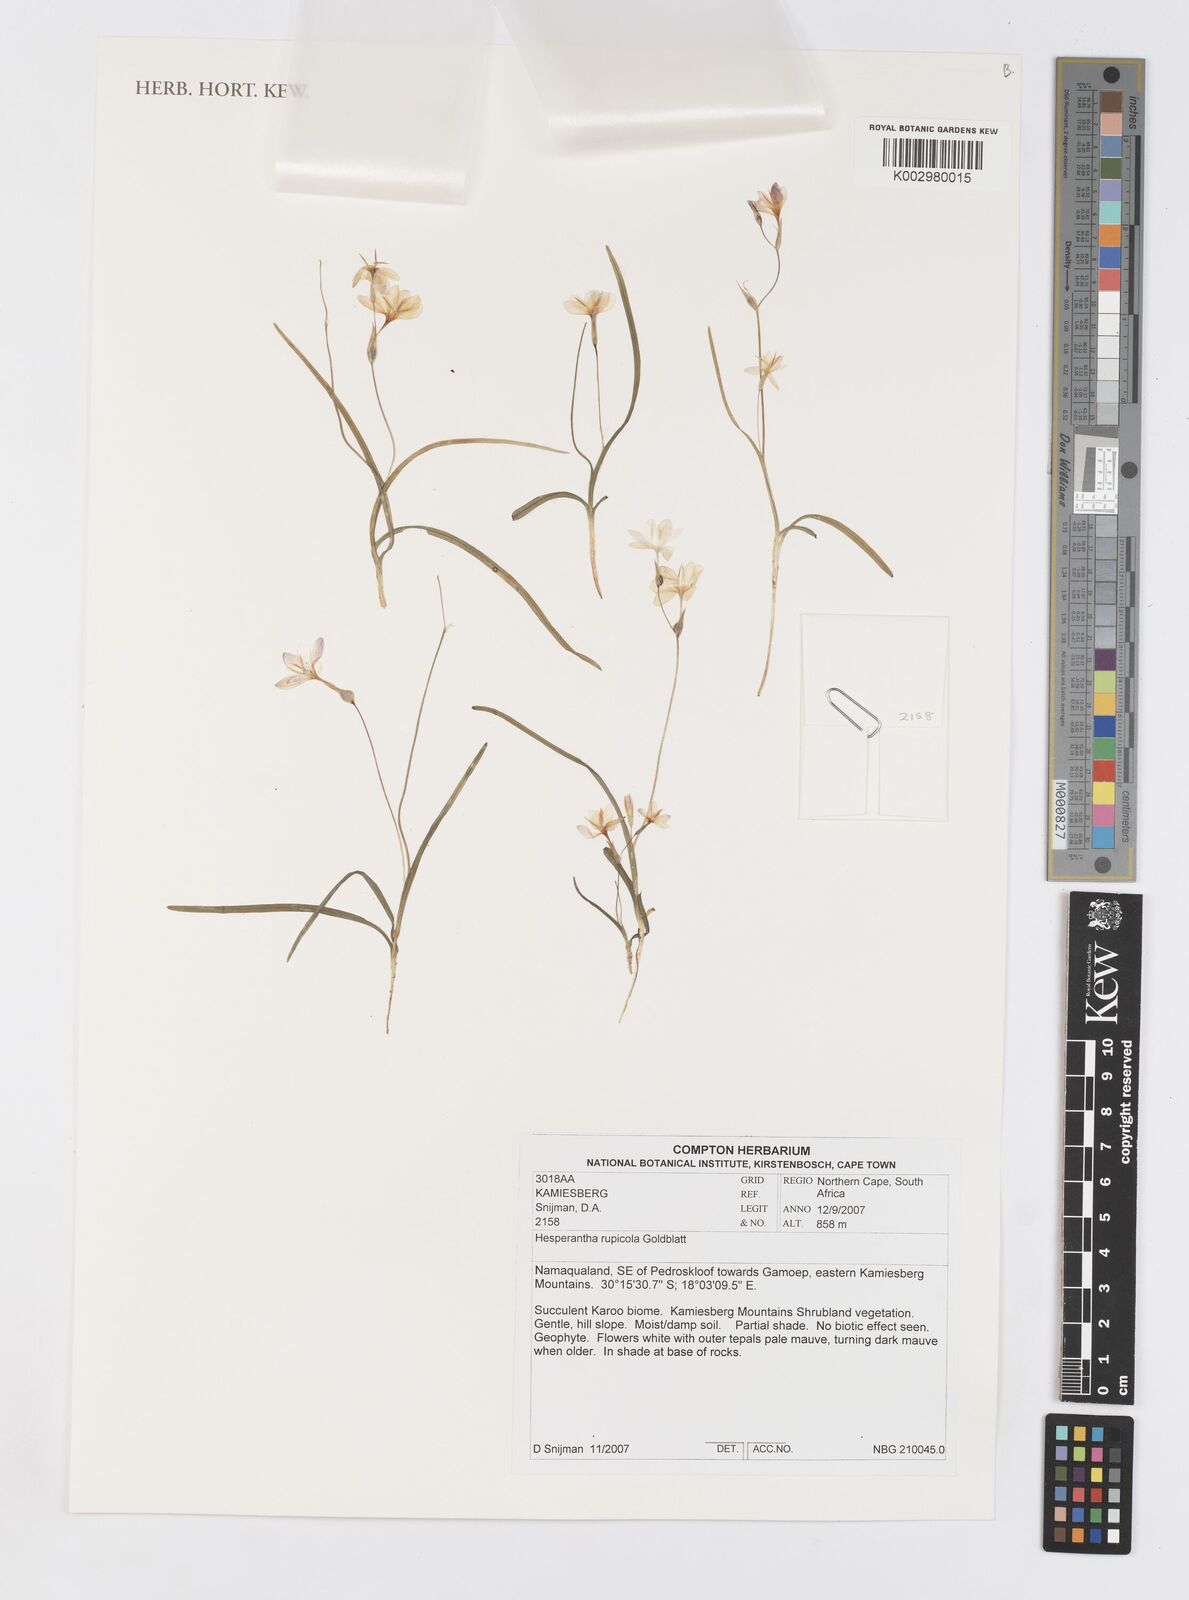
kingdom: Plantae
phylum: Tracheophyta
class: Liliopsida
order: Asparagales
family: Iridaceae
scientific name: Iridaceae
